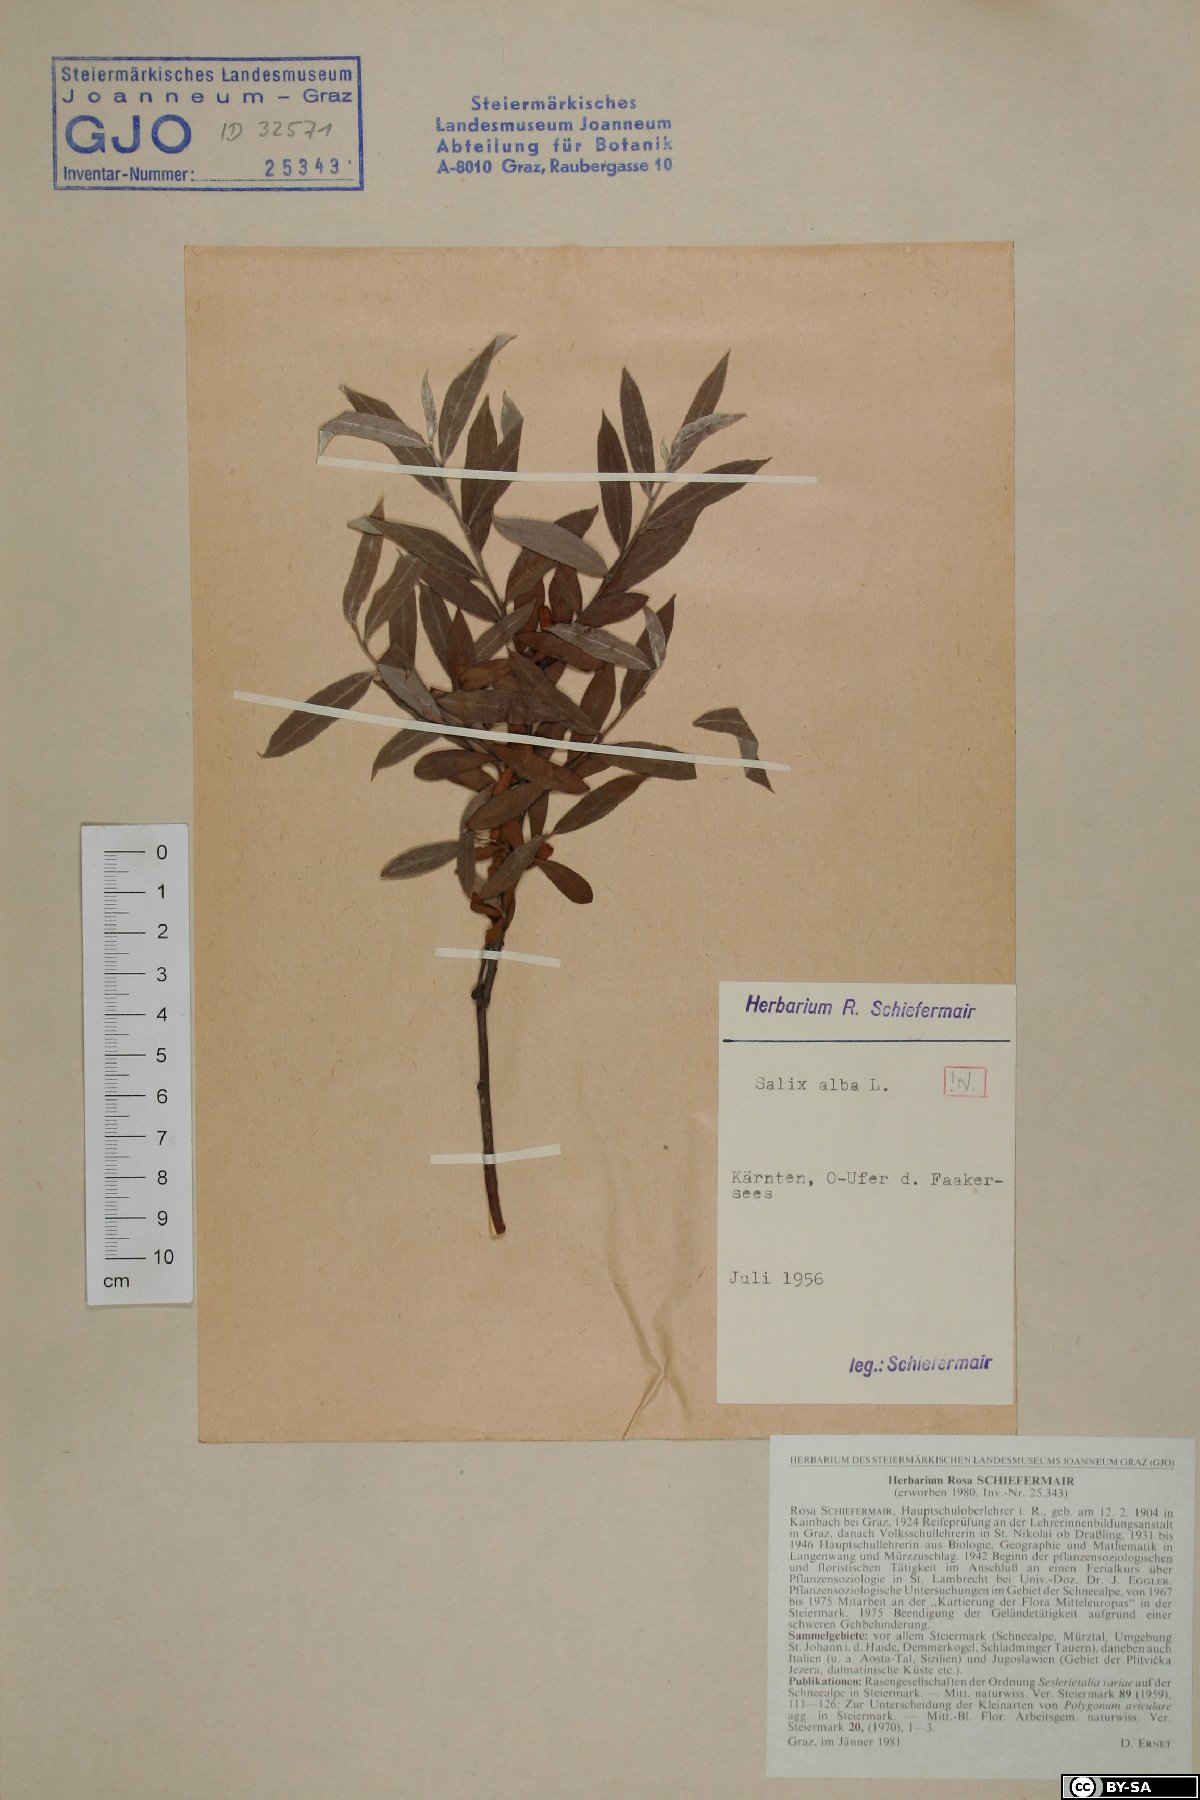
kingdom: Plantae
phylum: Tracheophyta
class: Magnoliopsida
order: Malpighiales
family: Salicaceae
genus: Salix
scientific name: Salix alba
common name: White willow
